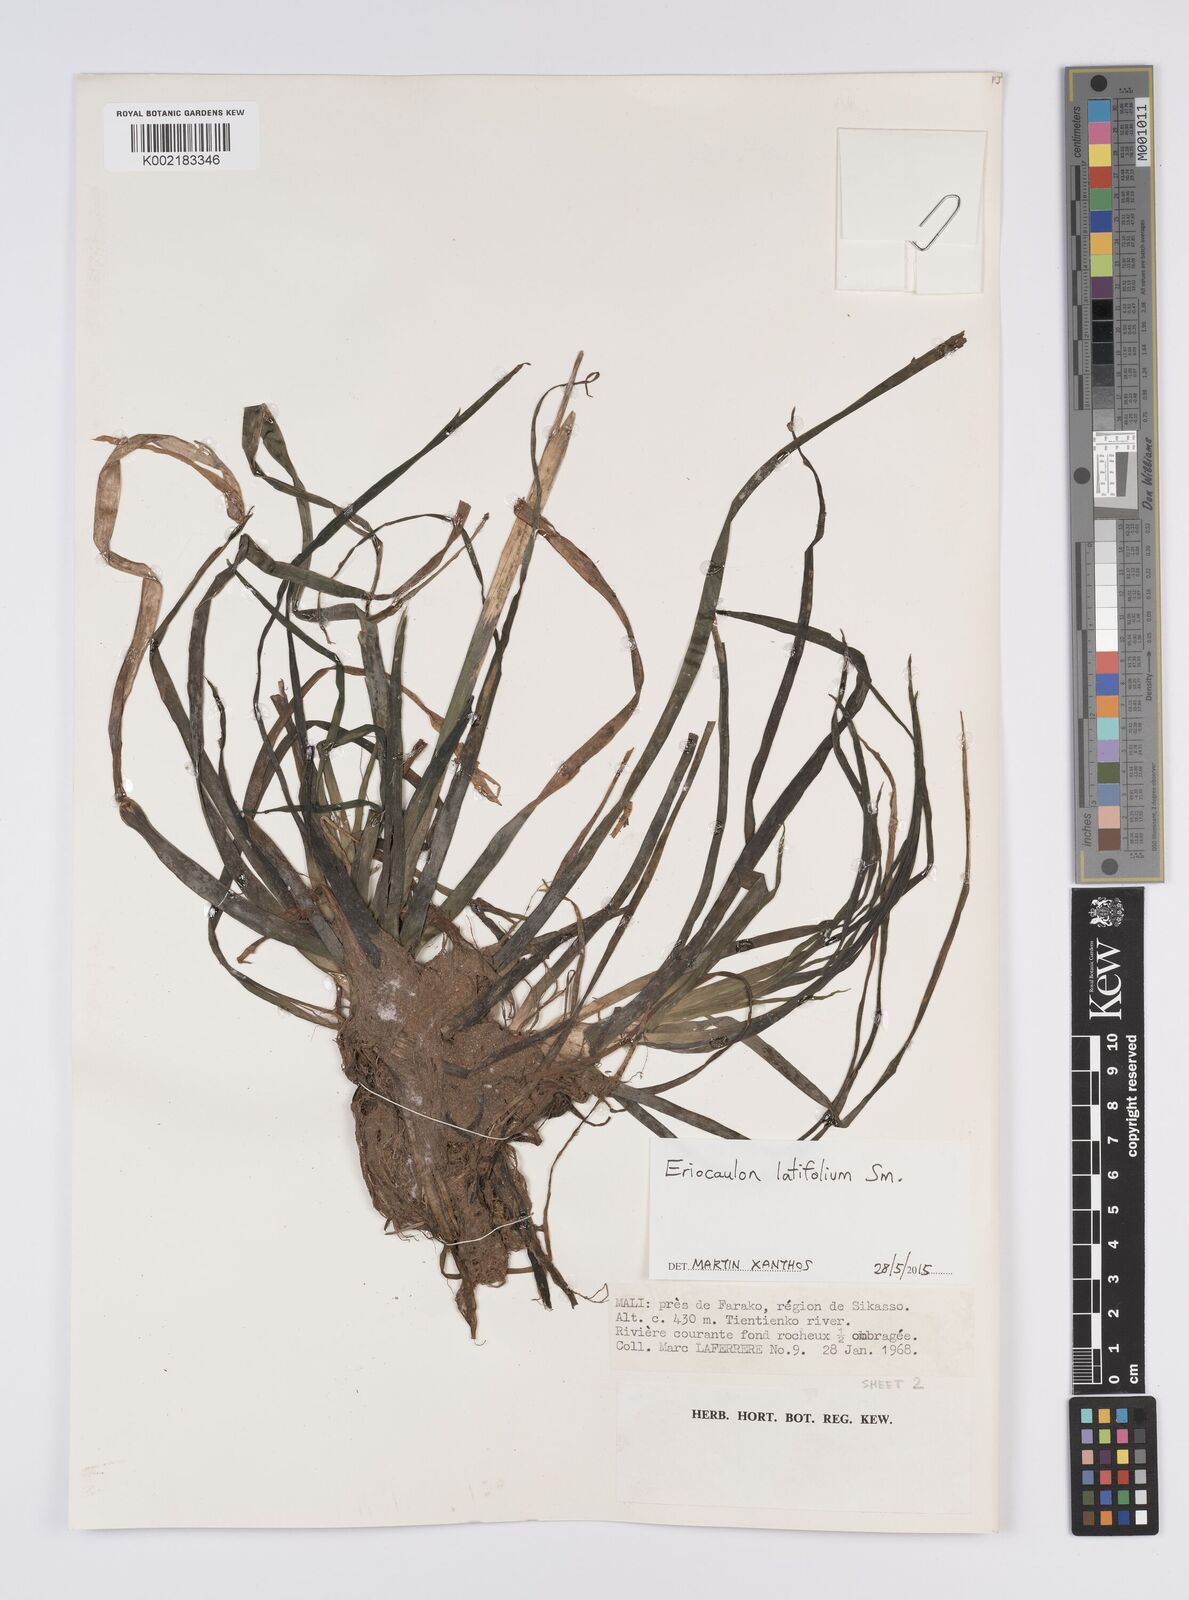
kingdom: Plantae
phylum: Tracheophyta
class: Liliopsida
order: Poales
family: Eriocaulaceae
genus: Eriocaulon
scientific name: Eriocaulon latifolium
